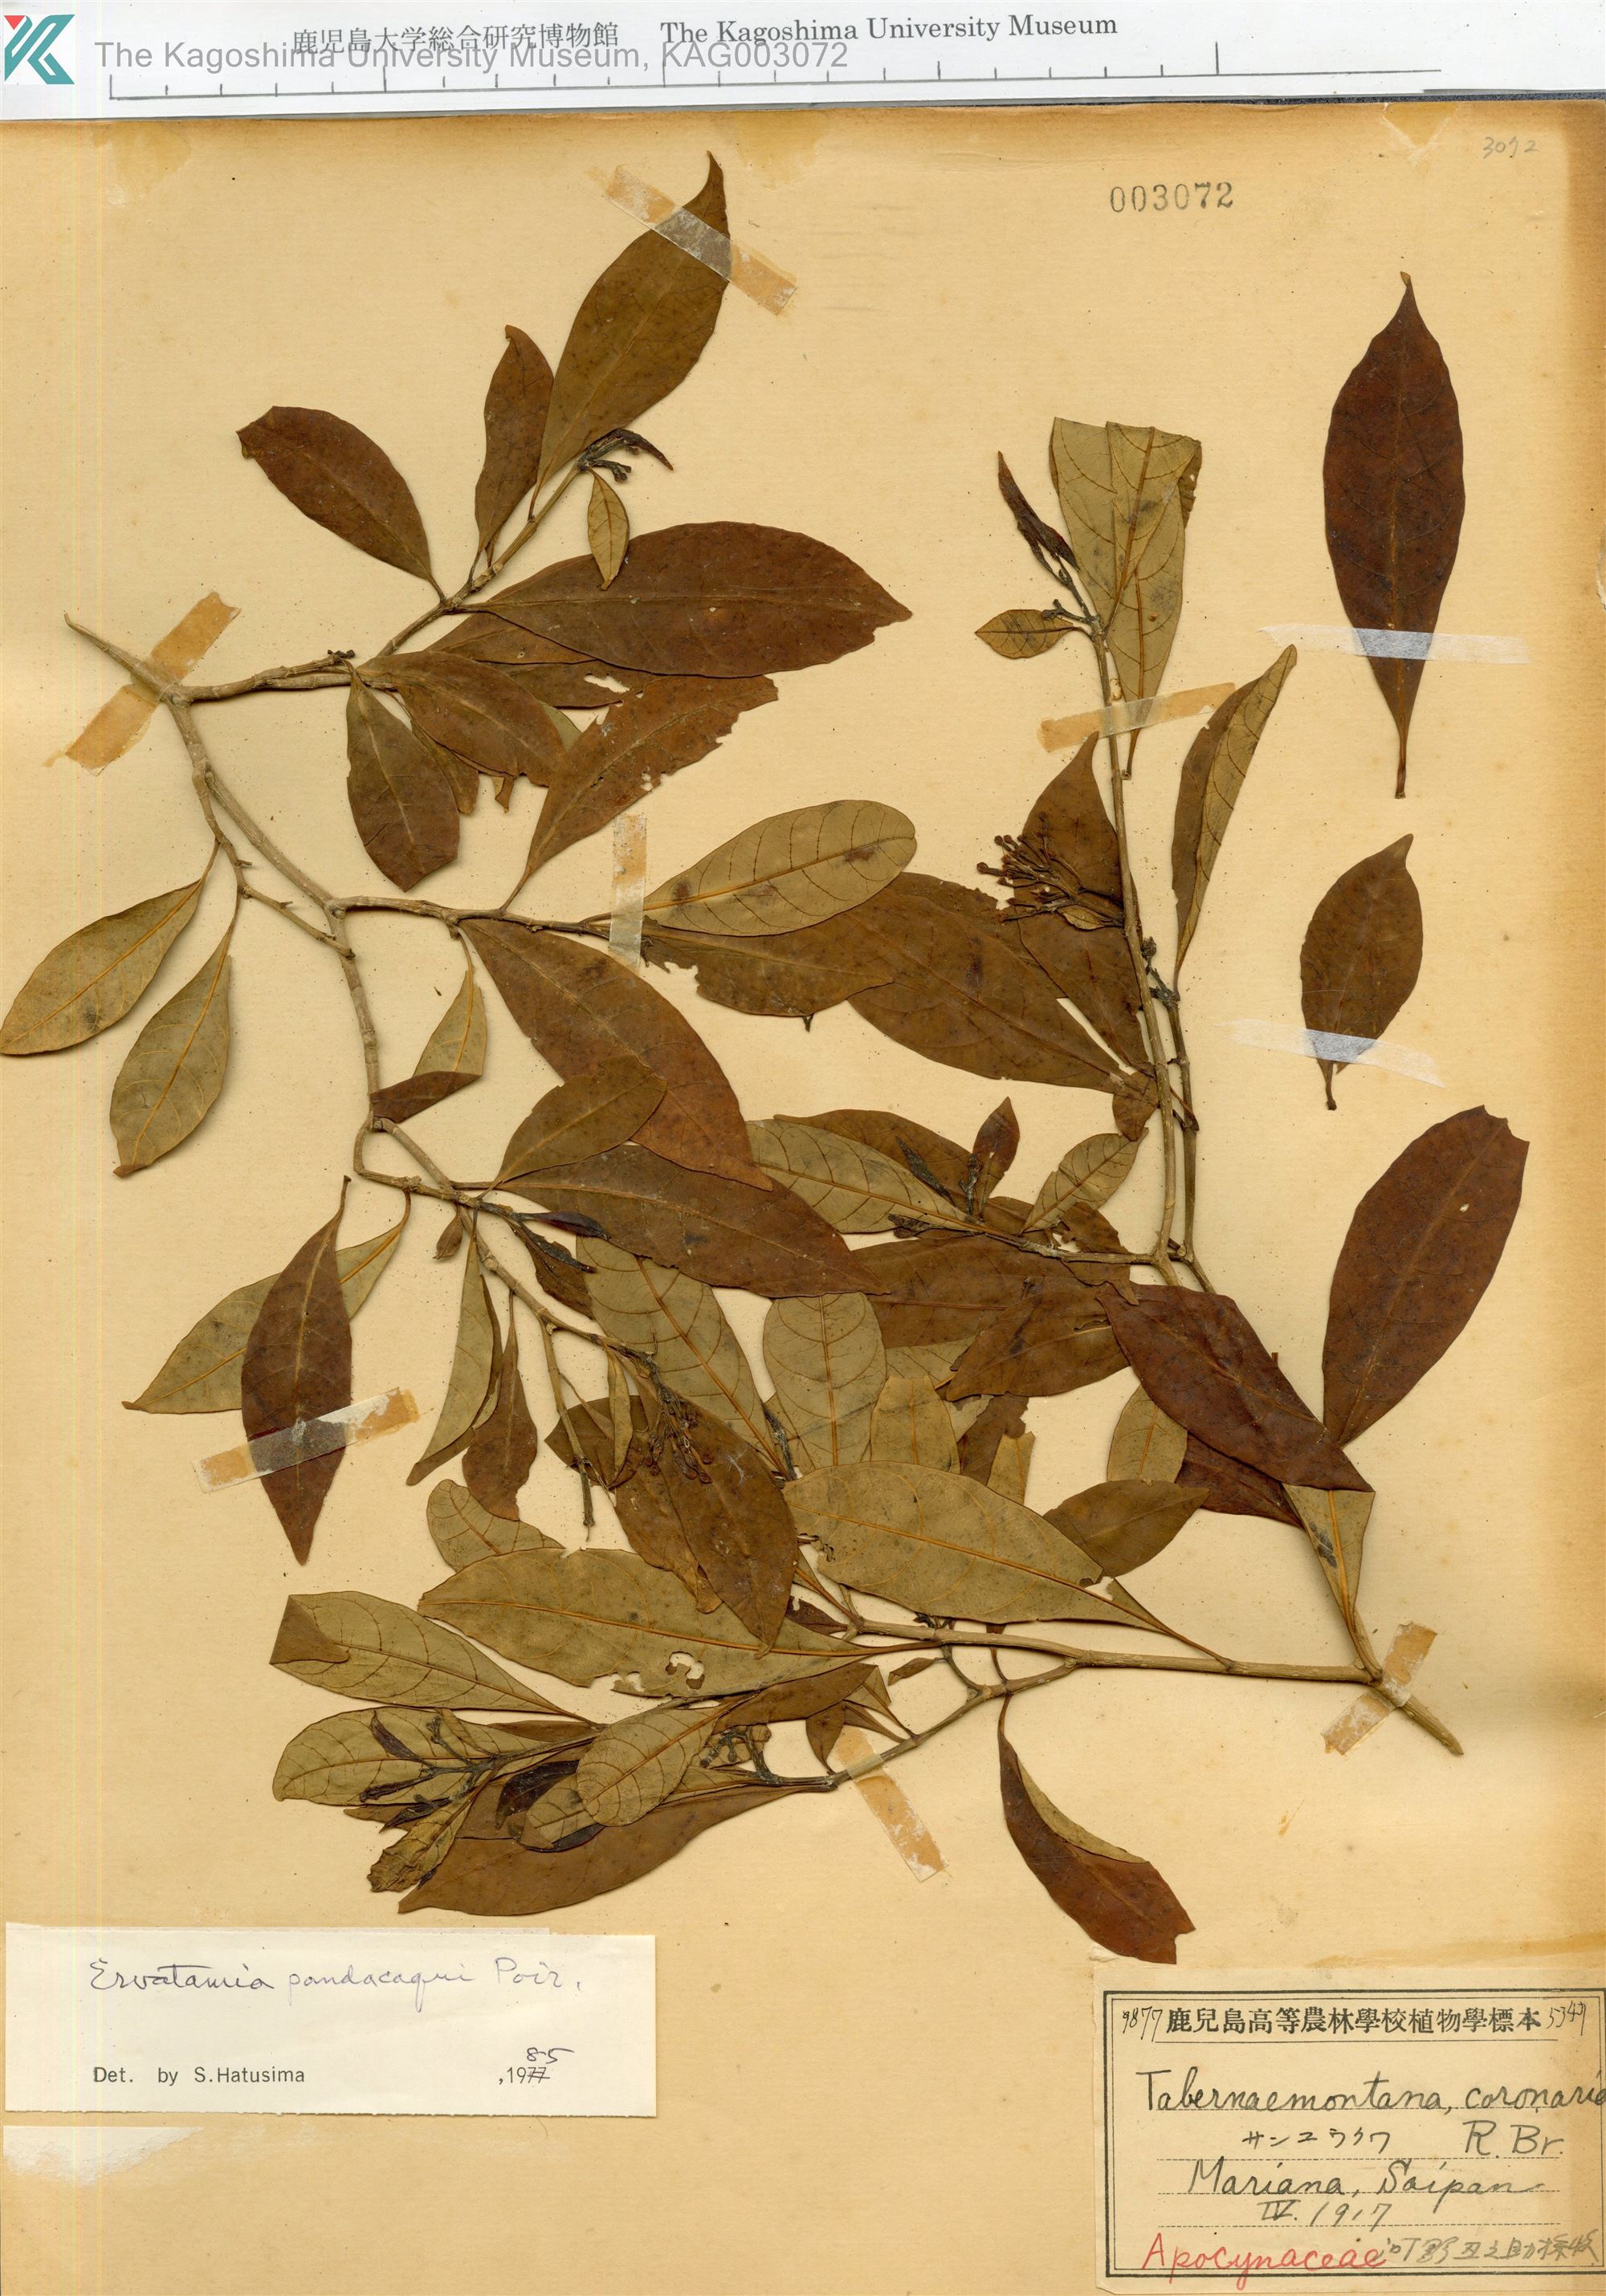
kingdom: Plantae
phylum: Tracheophyta
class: Magnoliopsida
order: Gentianales
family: Apocynaceae
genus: Tabernaemontana
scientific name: Tabernaemontana pandacaqui
